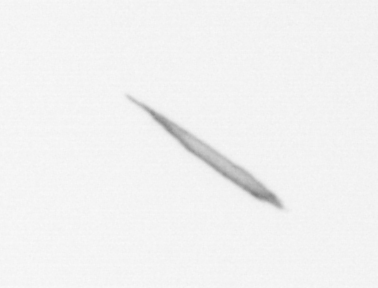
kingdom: Chromista
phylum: Ochrophyta
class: Bacillariophyceae
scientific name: Bacillariophyceae
